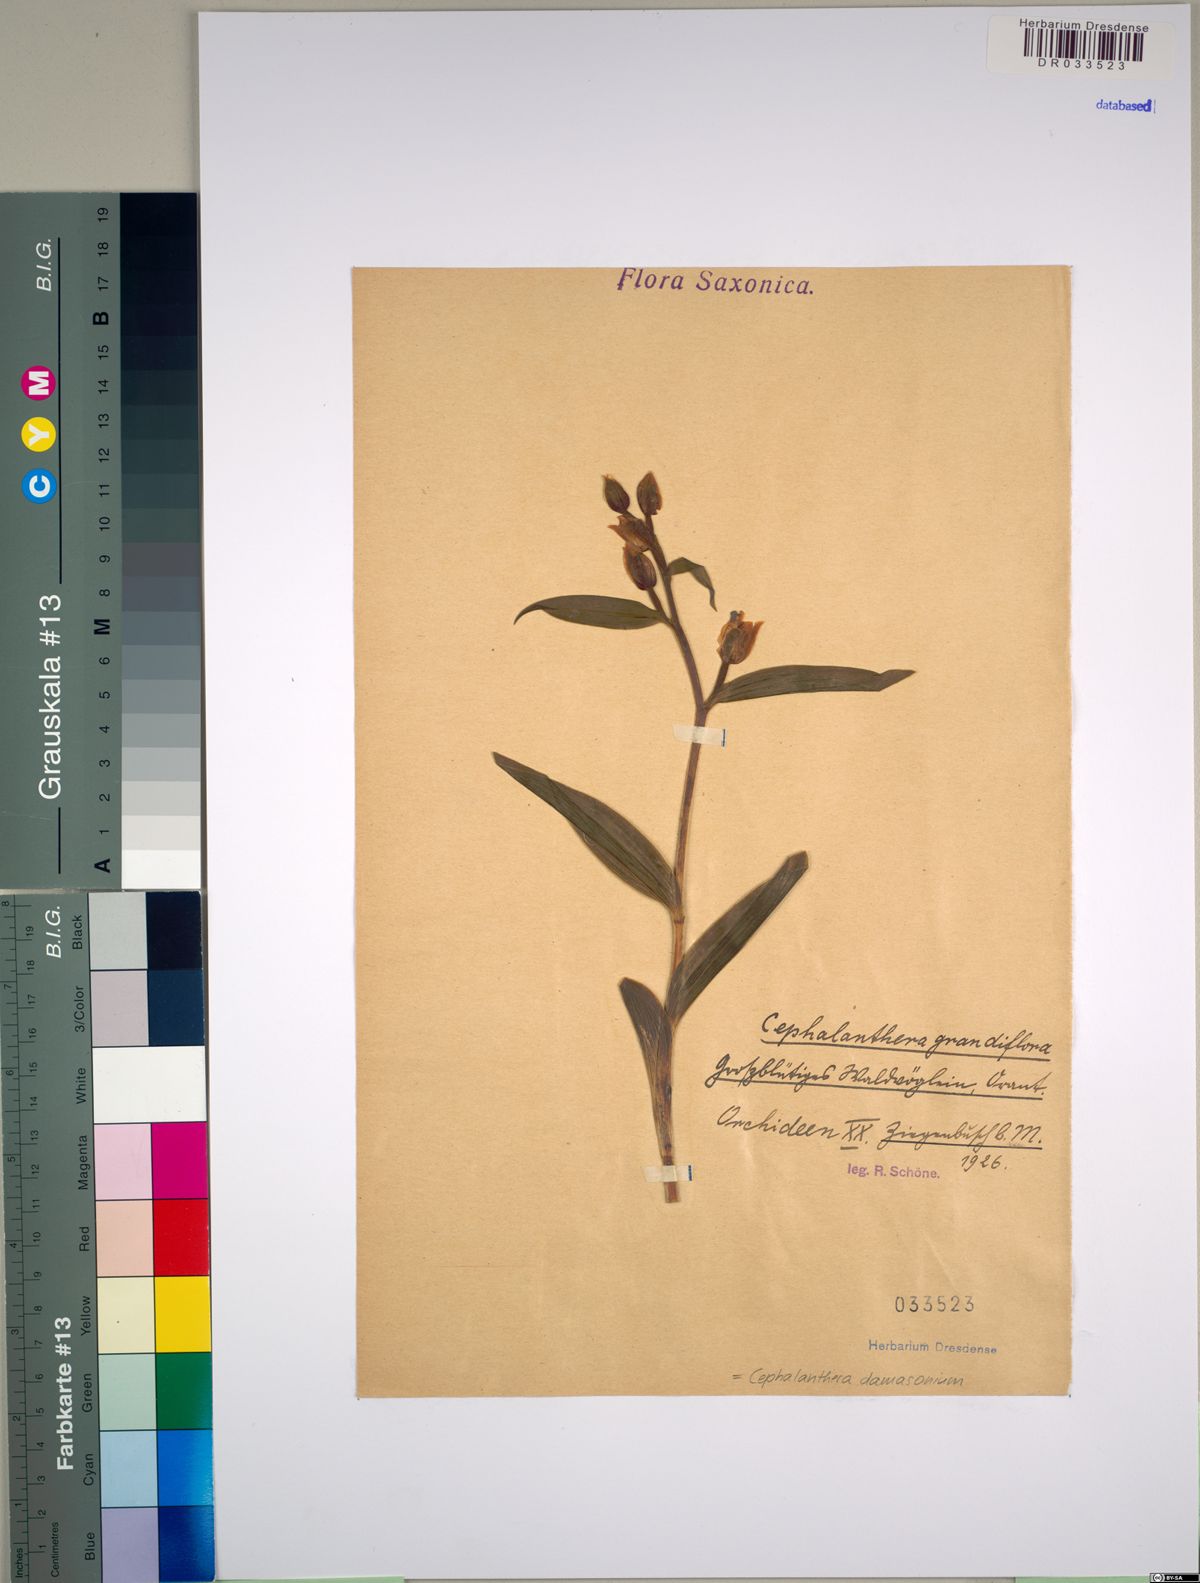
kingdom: Plantae
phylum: Tracheophyta
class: Liliopsida
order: Asparagales
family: Orchidaceae
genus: Cephalanthera
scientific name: Cephalanthera damasonium
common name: White helleborine
